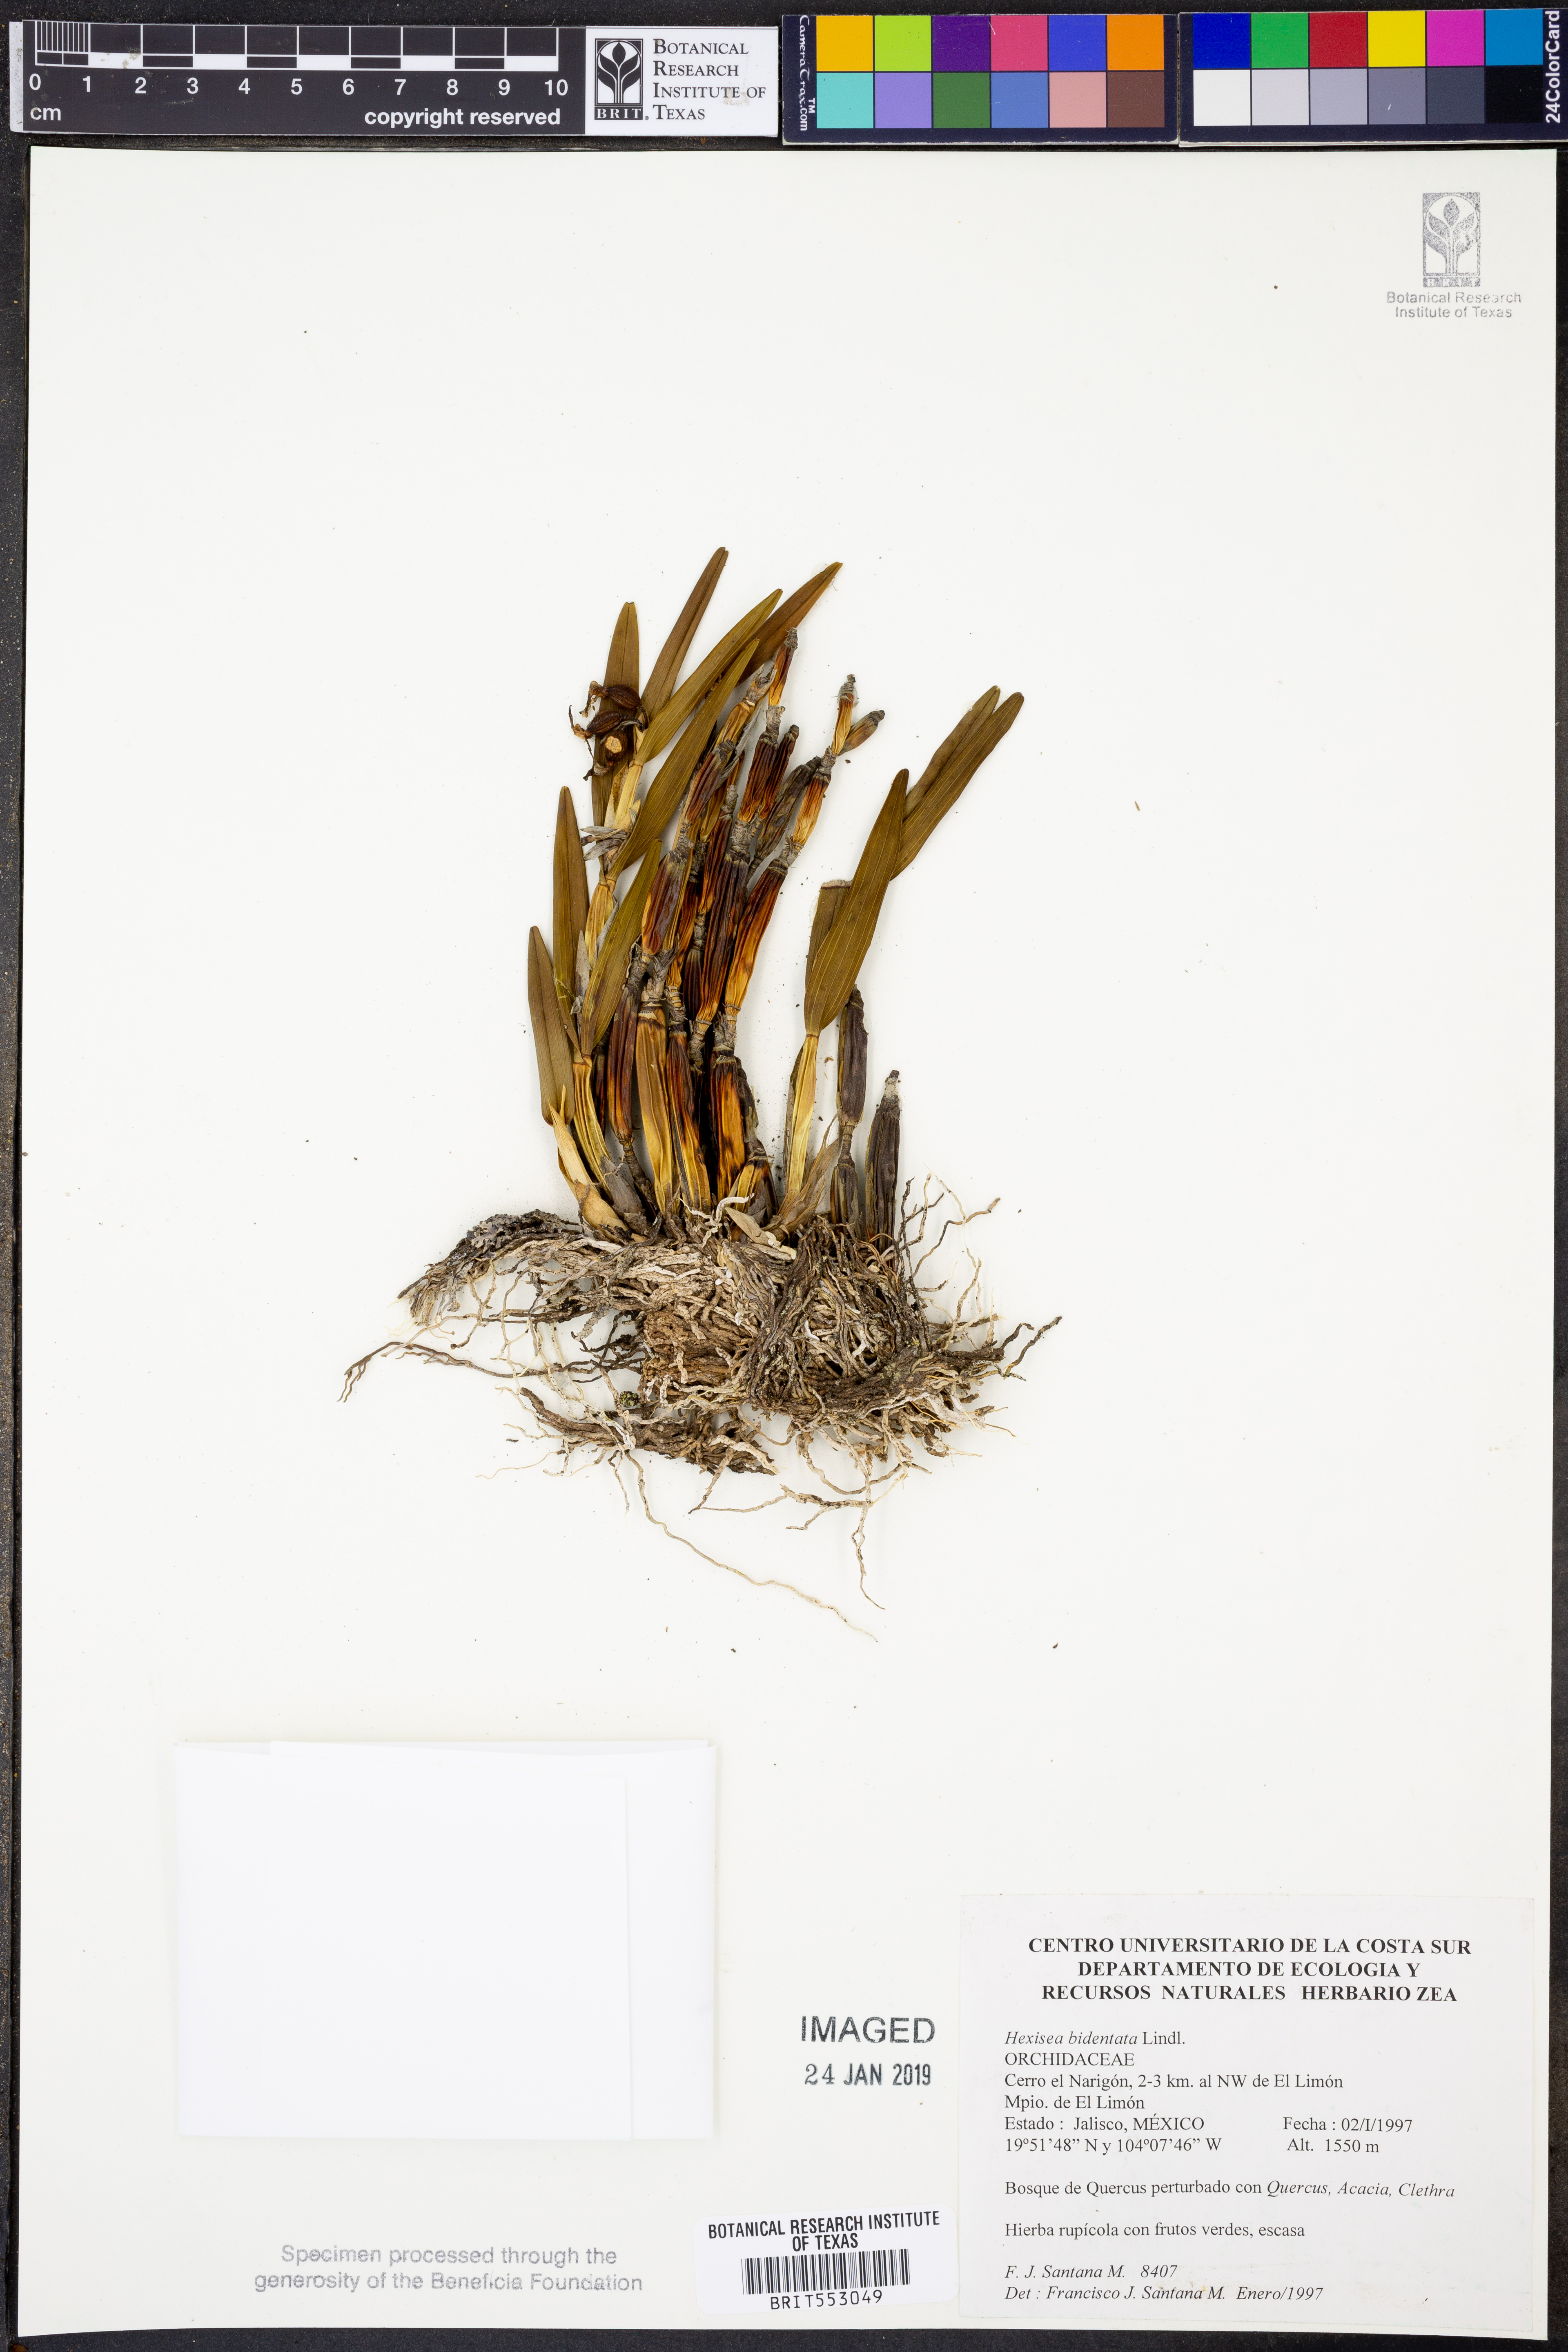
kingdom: Plantae
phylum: Tracheophyta
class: Liliopsida
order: Asparagales
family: Orchidaceae
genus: Scaphyglottis
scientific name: Scaphyglottis bidentata
